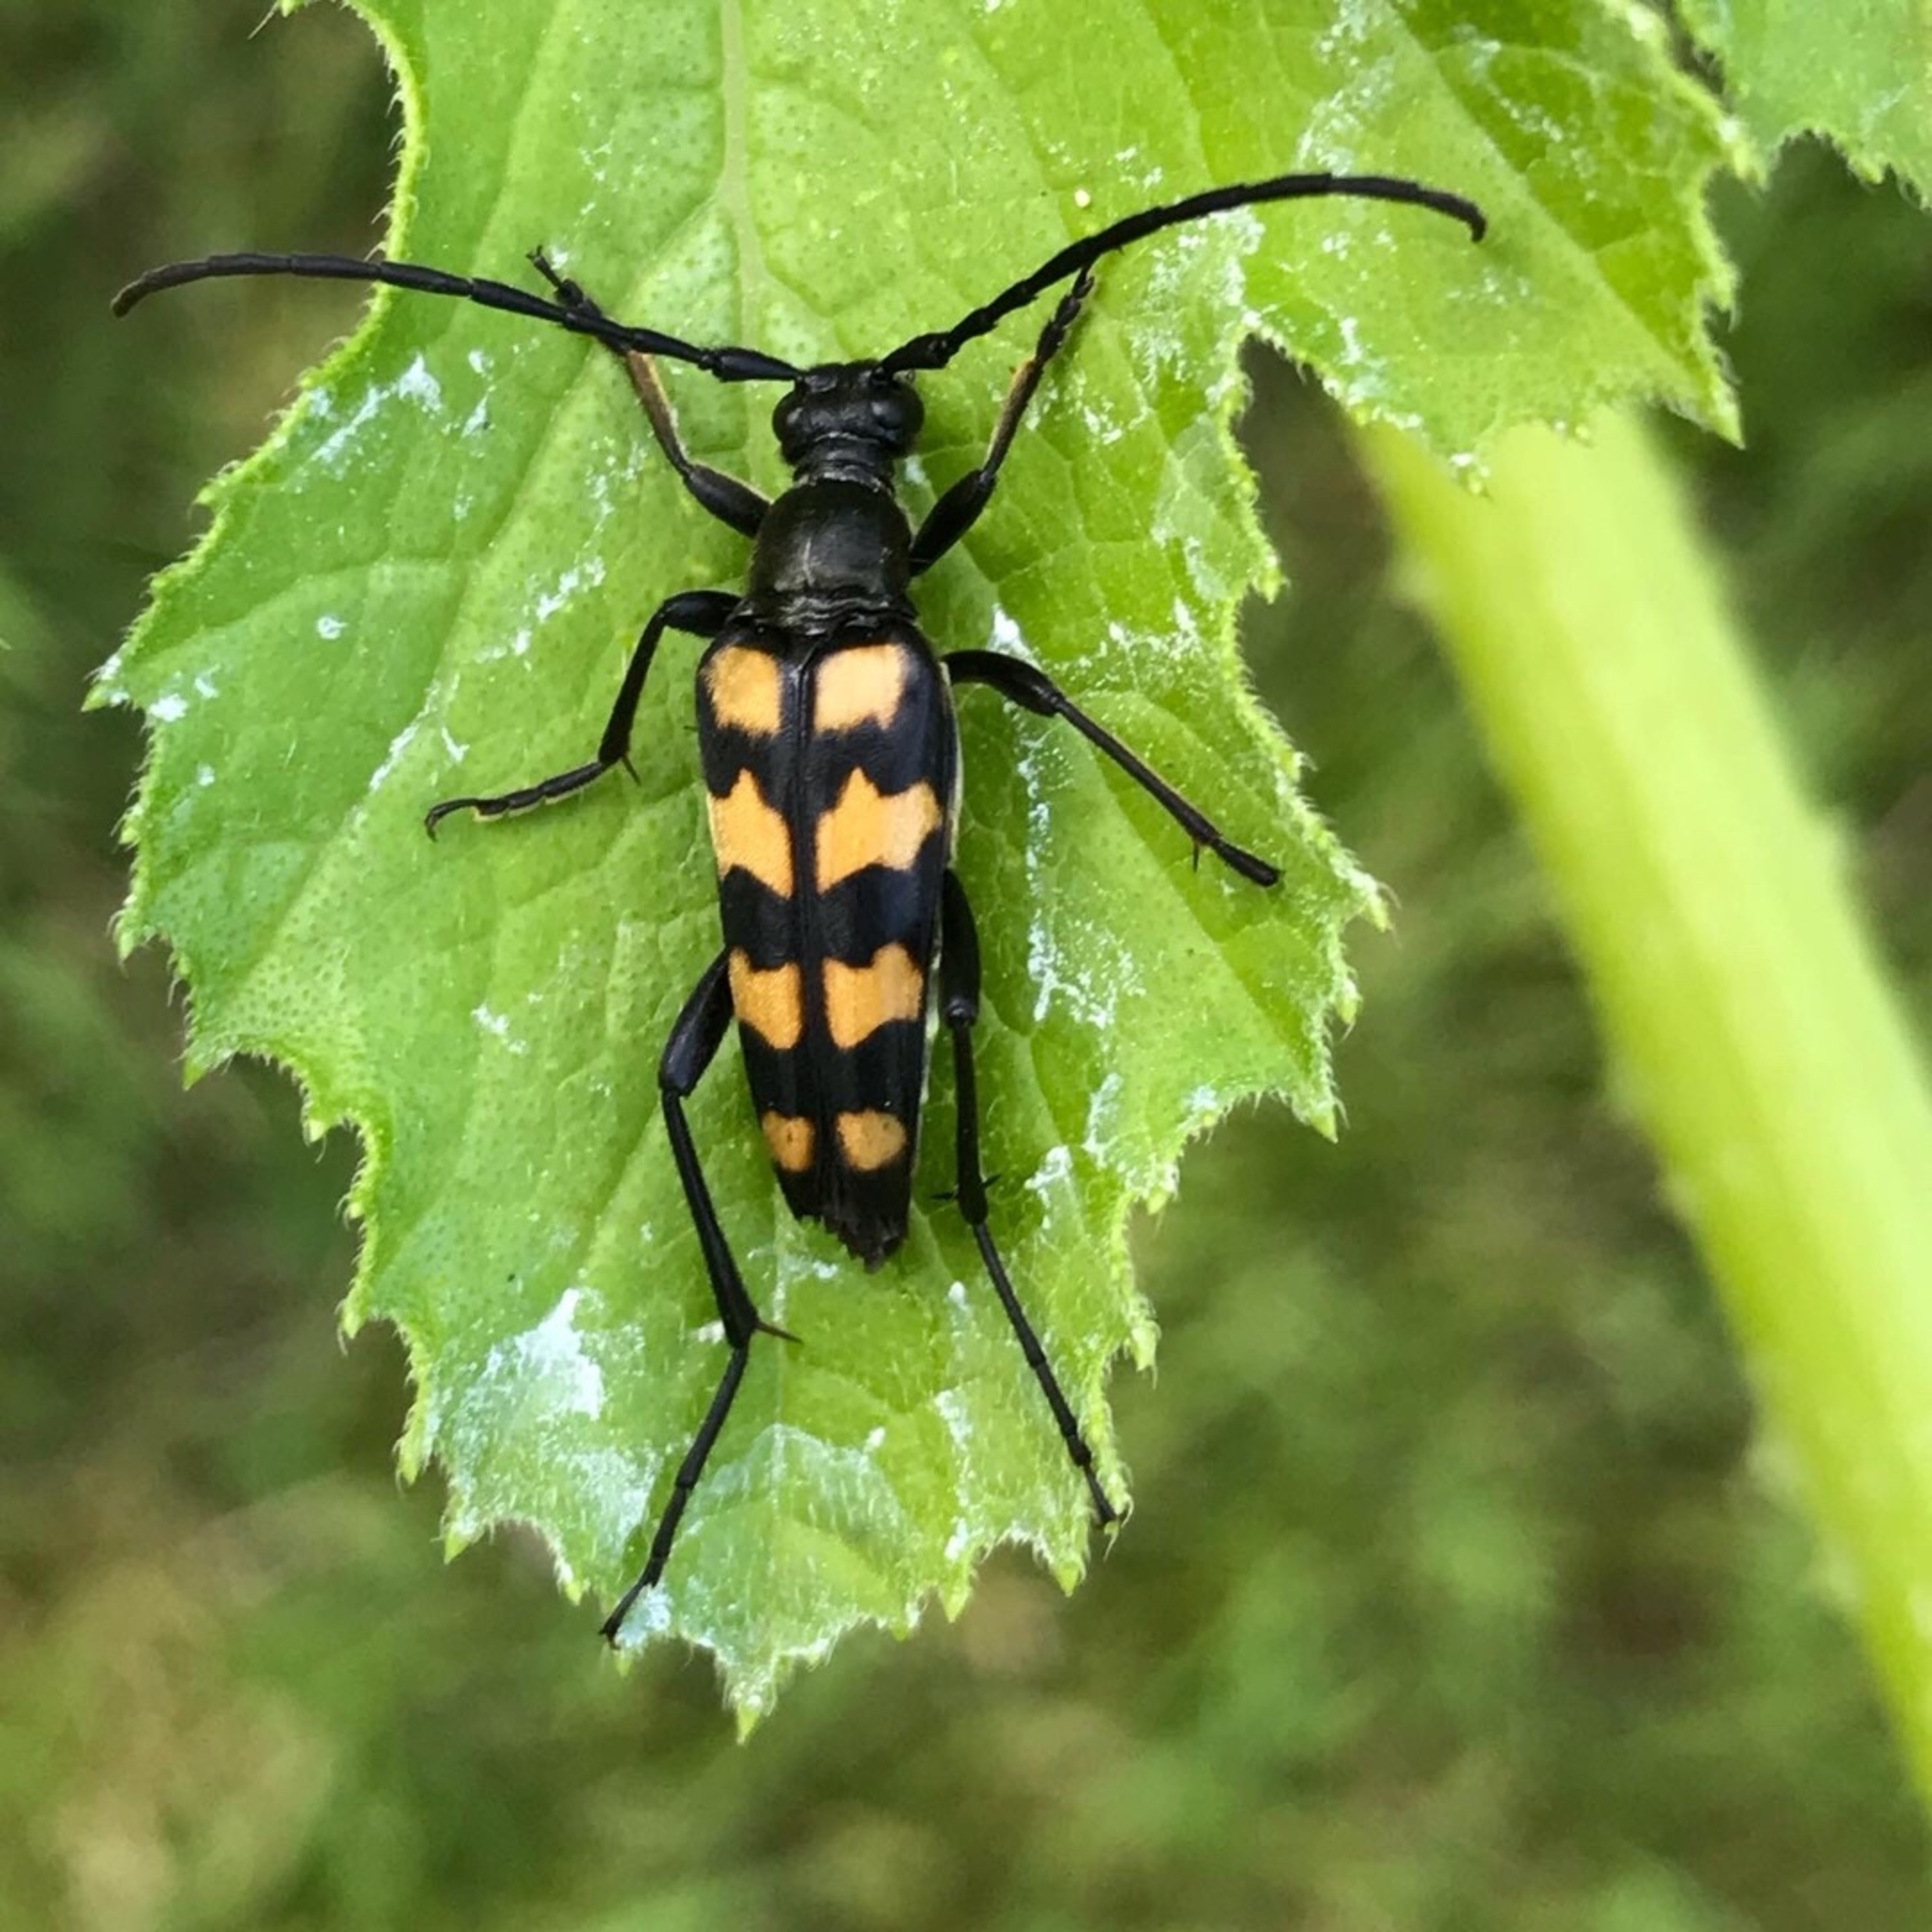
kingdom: Animalia
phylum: Arthropoda
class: Insecta
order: Coleoptera
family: Cerambycidae
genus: Leptura
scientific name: Leptura quadrifasciata
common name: Firebåndet blomsterbuk
